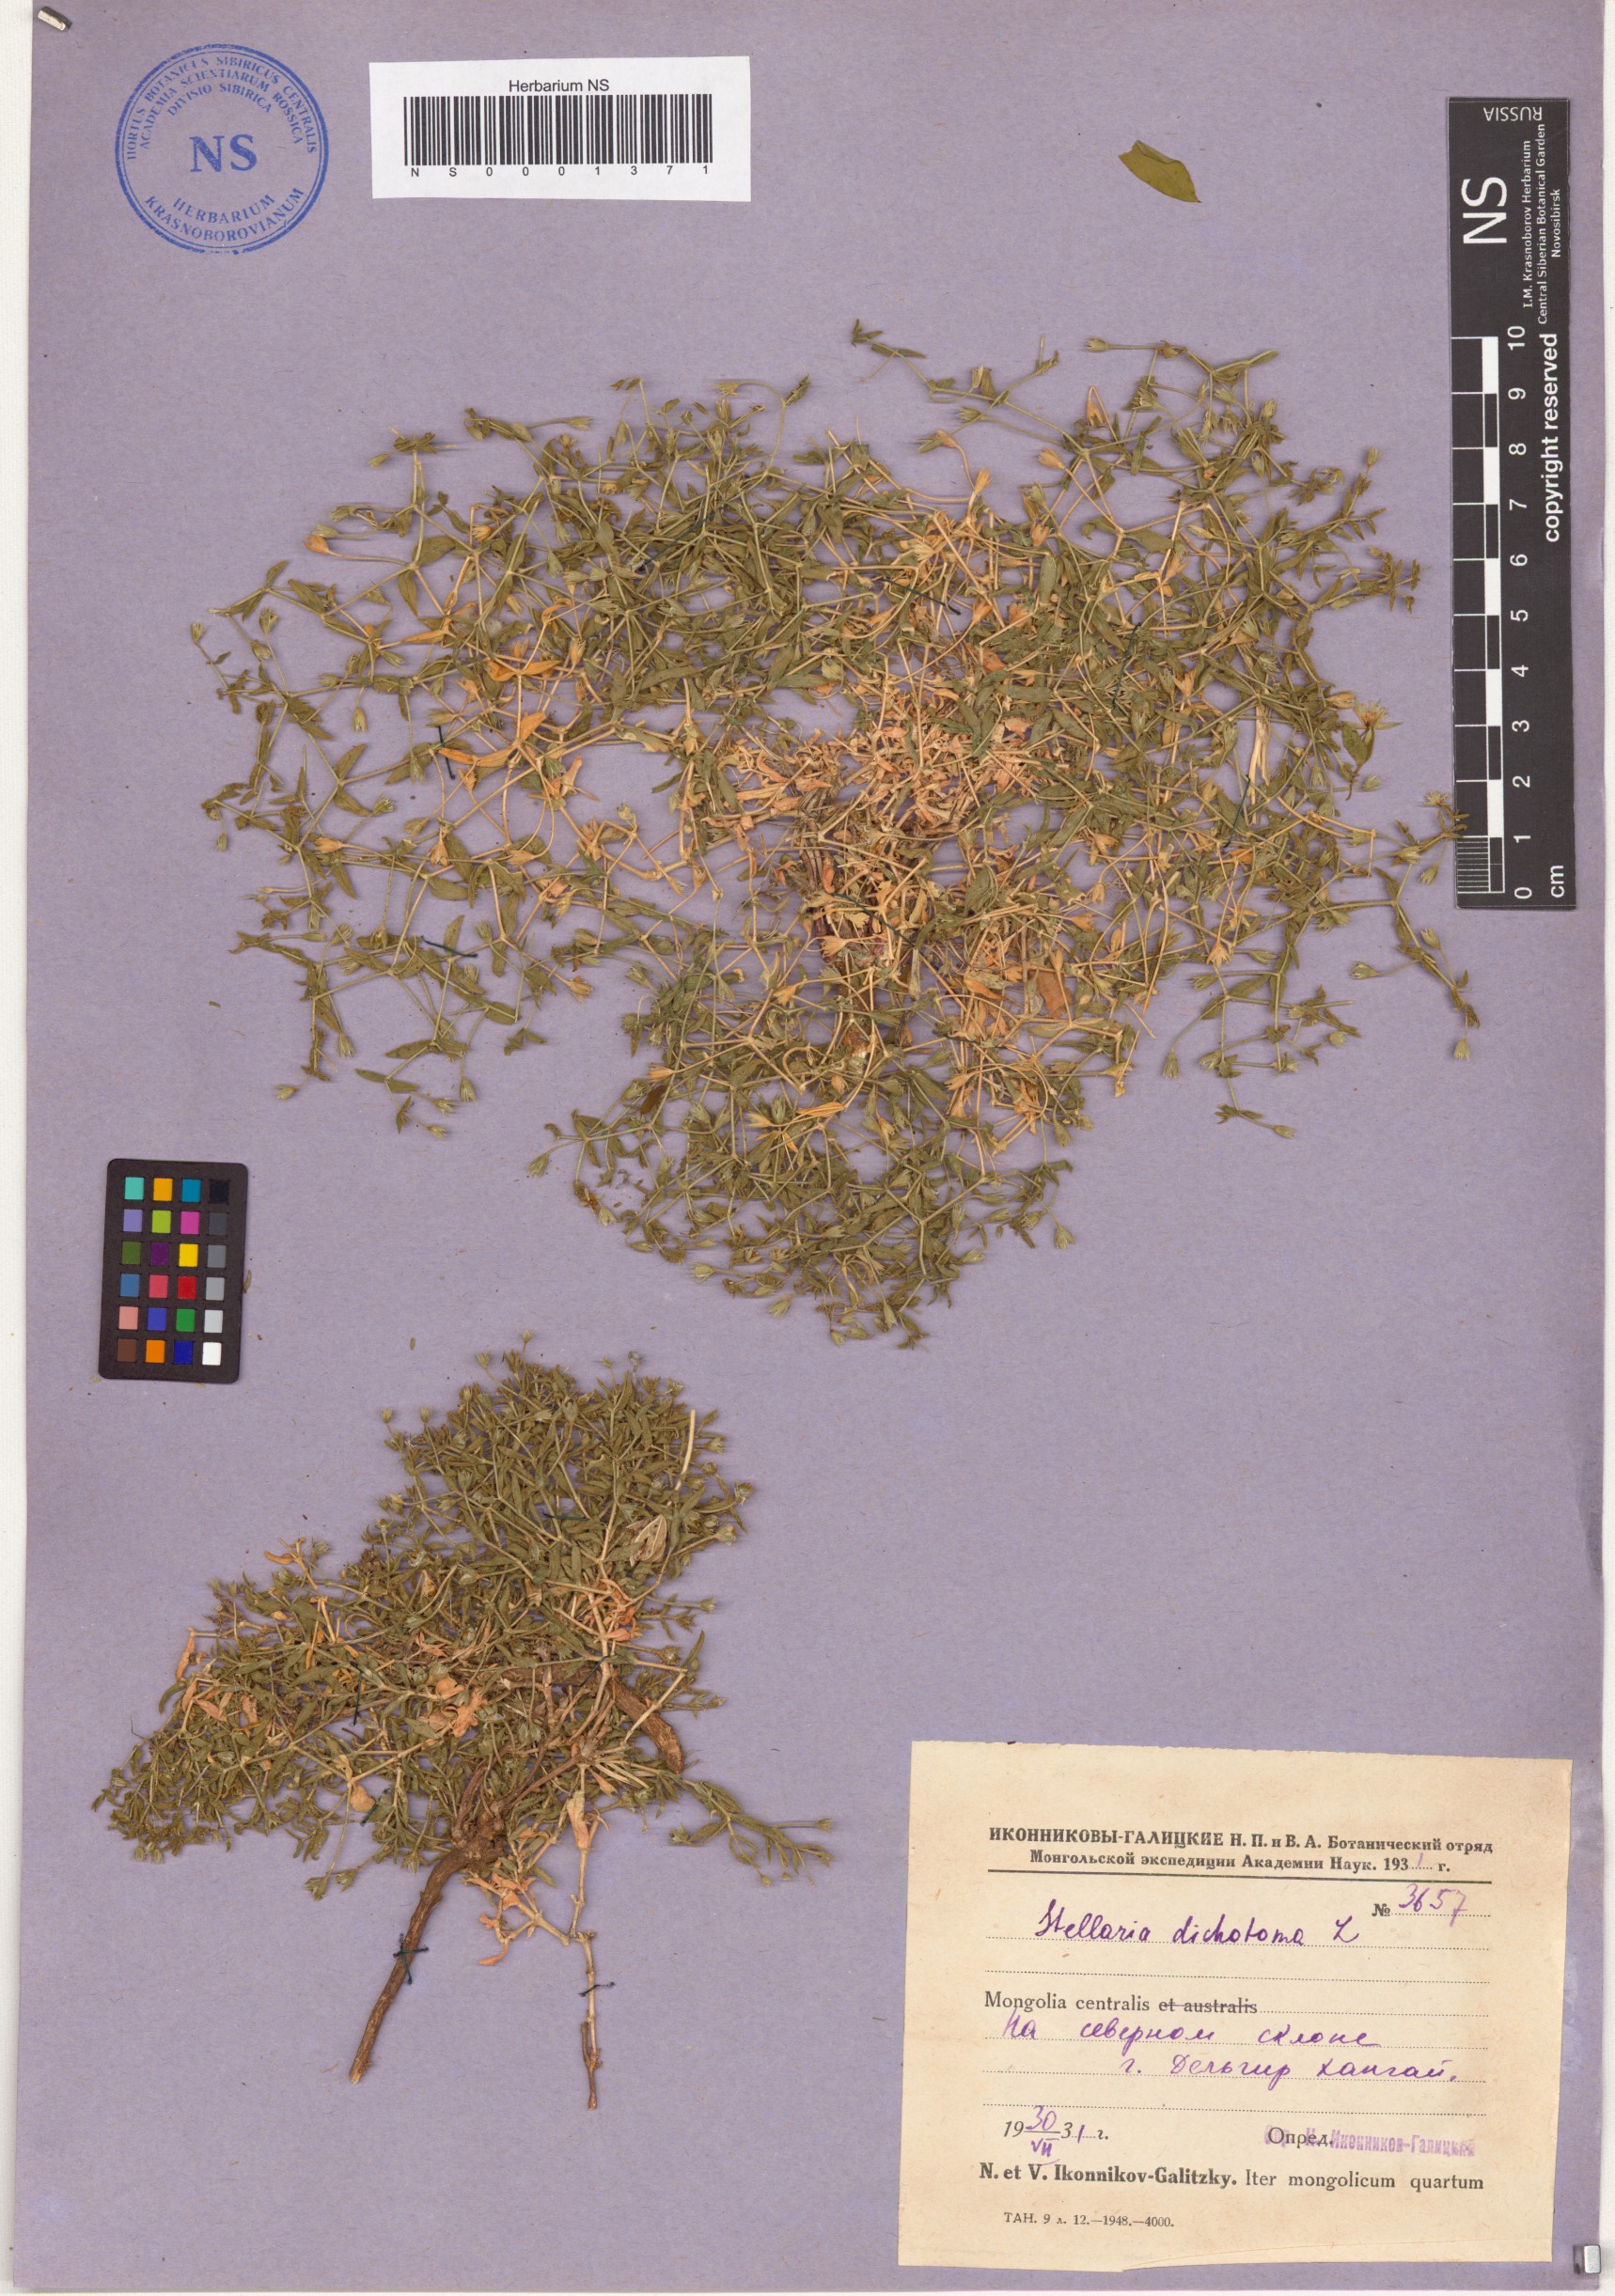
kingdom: Plantae
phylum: Tracheophyta
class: Magnoliopsida
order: Caryophyllales
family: Caryophyllaceae
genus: Mesostemma
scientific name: Mesostemma dichotomum
